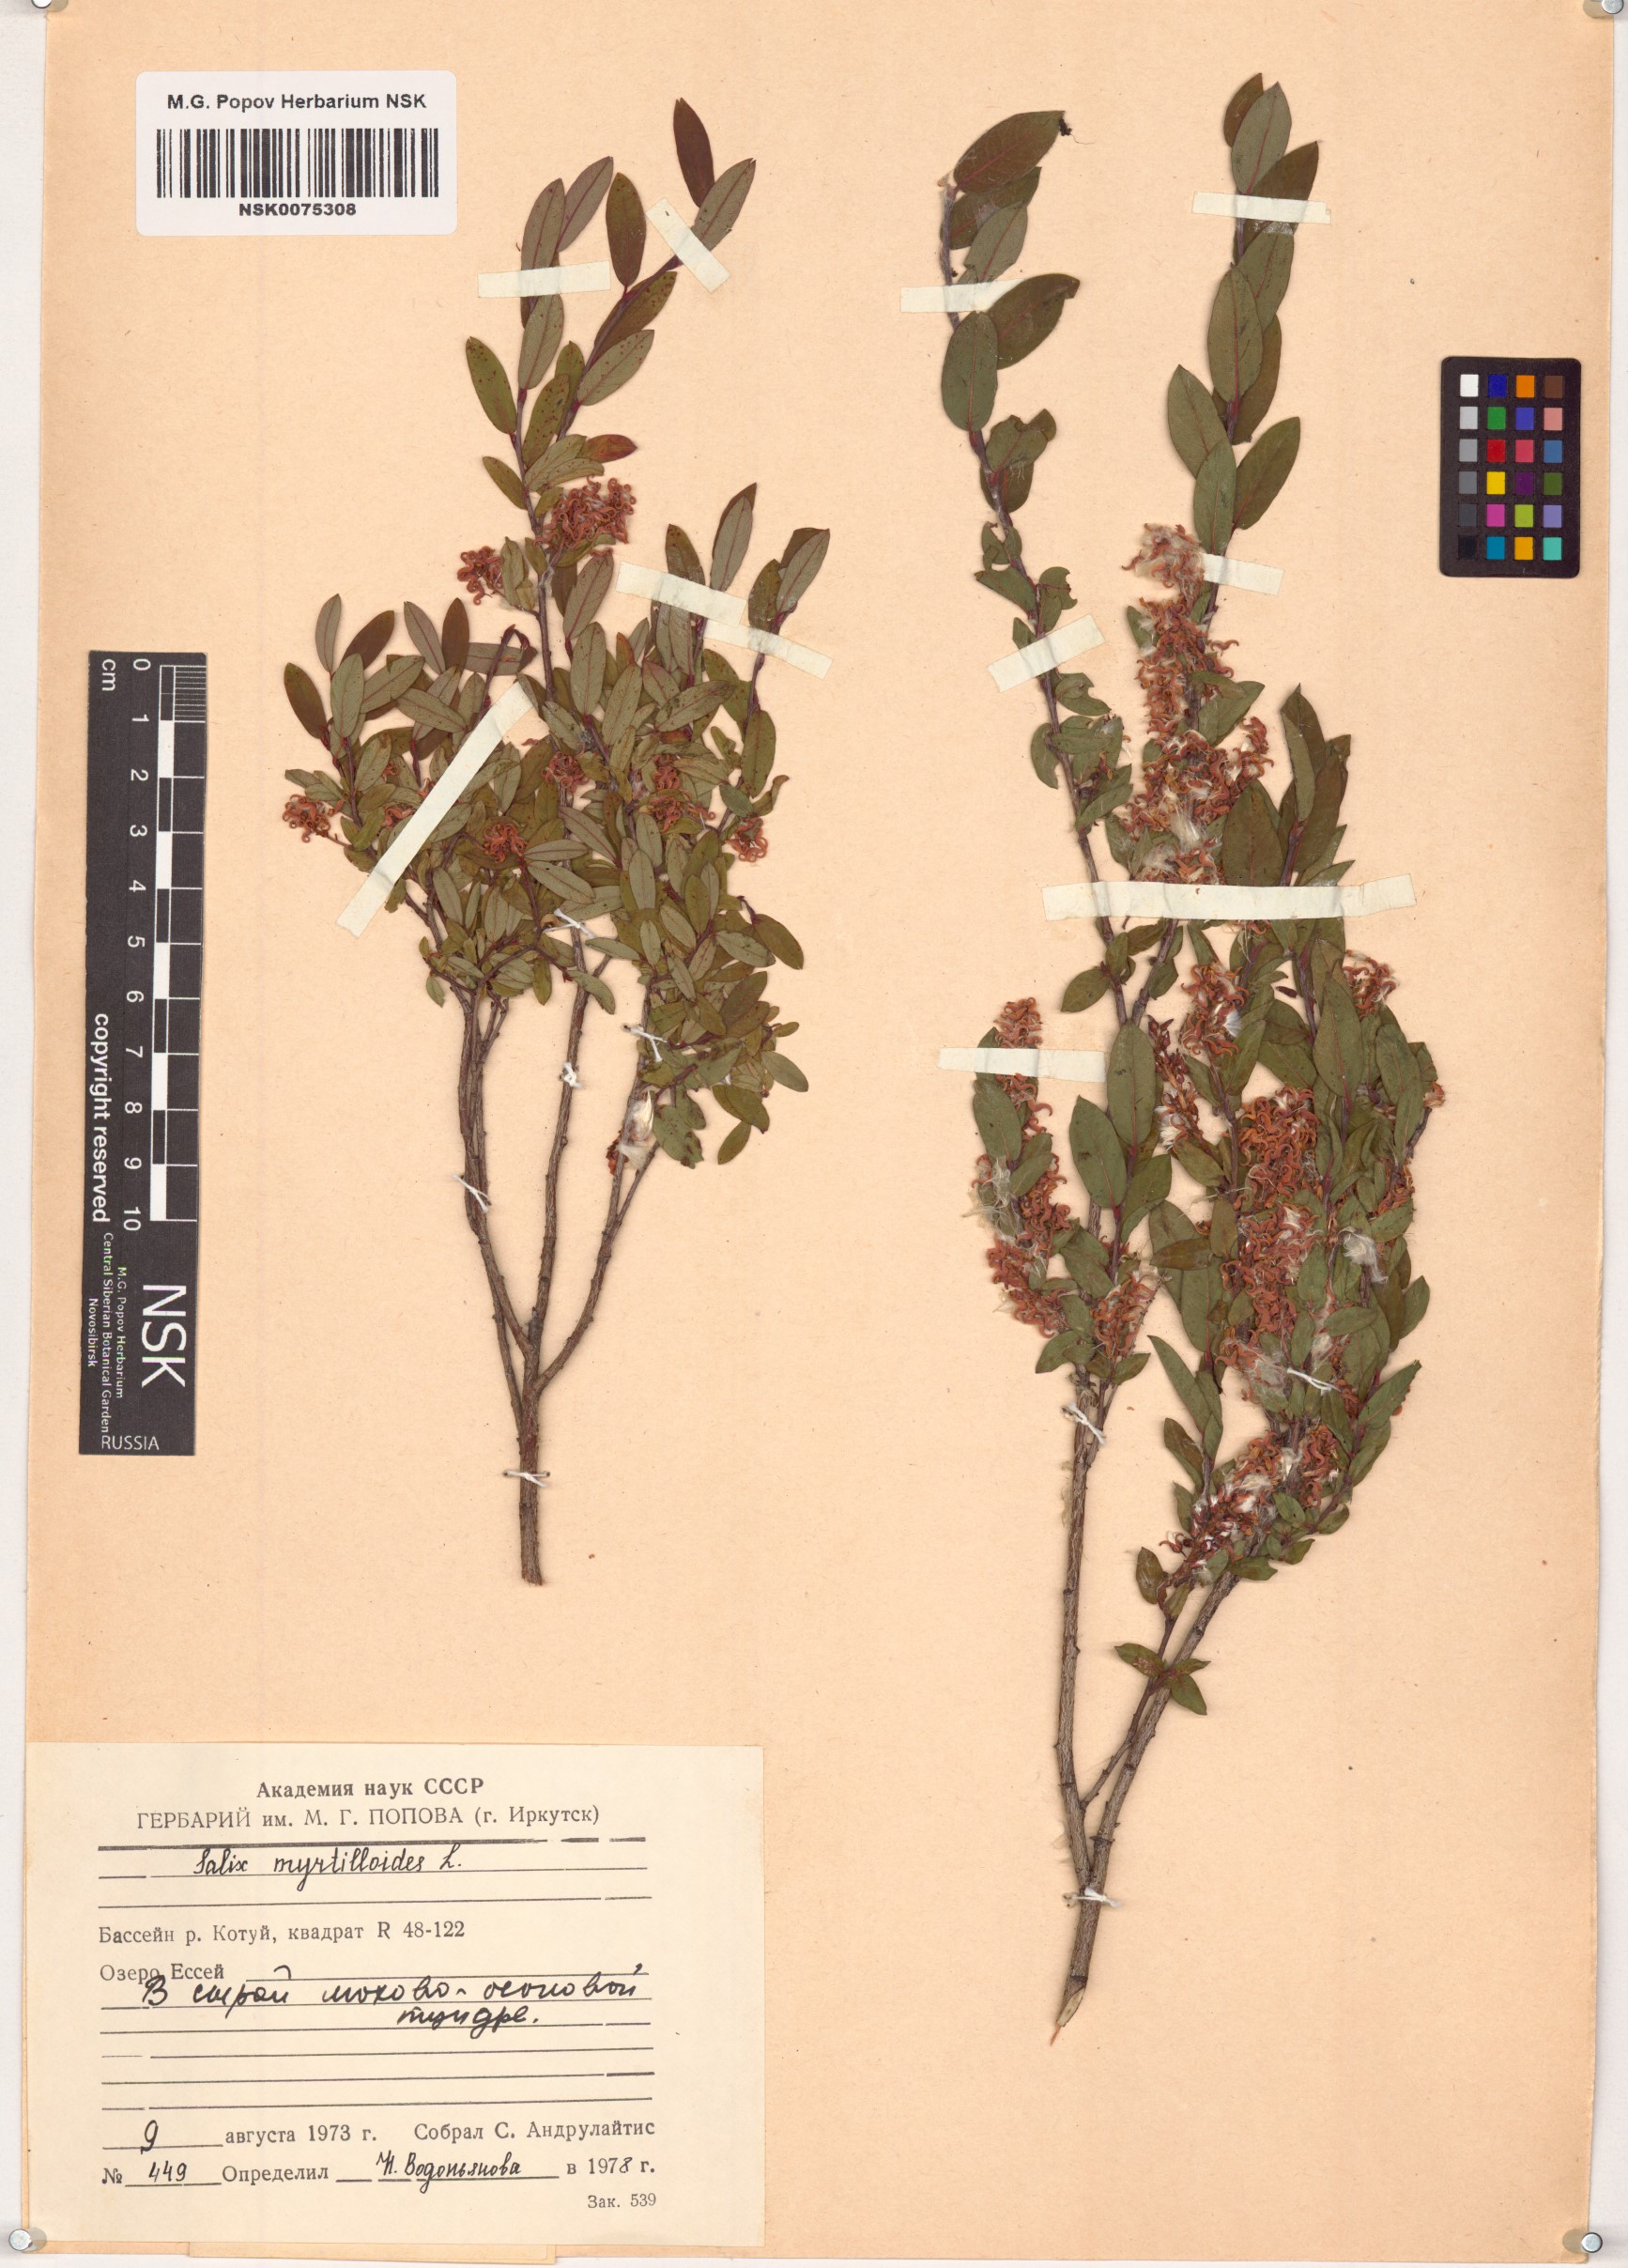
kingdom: Plantae
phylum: Tracheophyta
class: Magnoliopsida
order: Malpighiales
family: Salicaceae
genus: Salix
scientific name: Salix myrtilloides
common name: Myrtle-leaved willow
